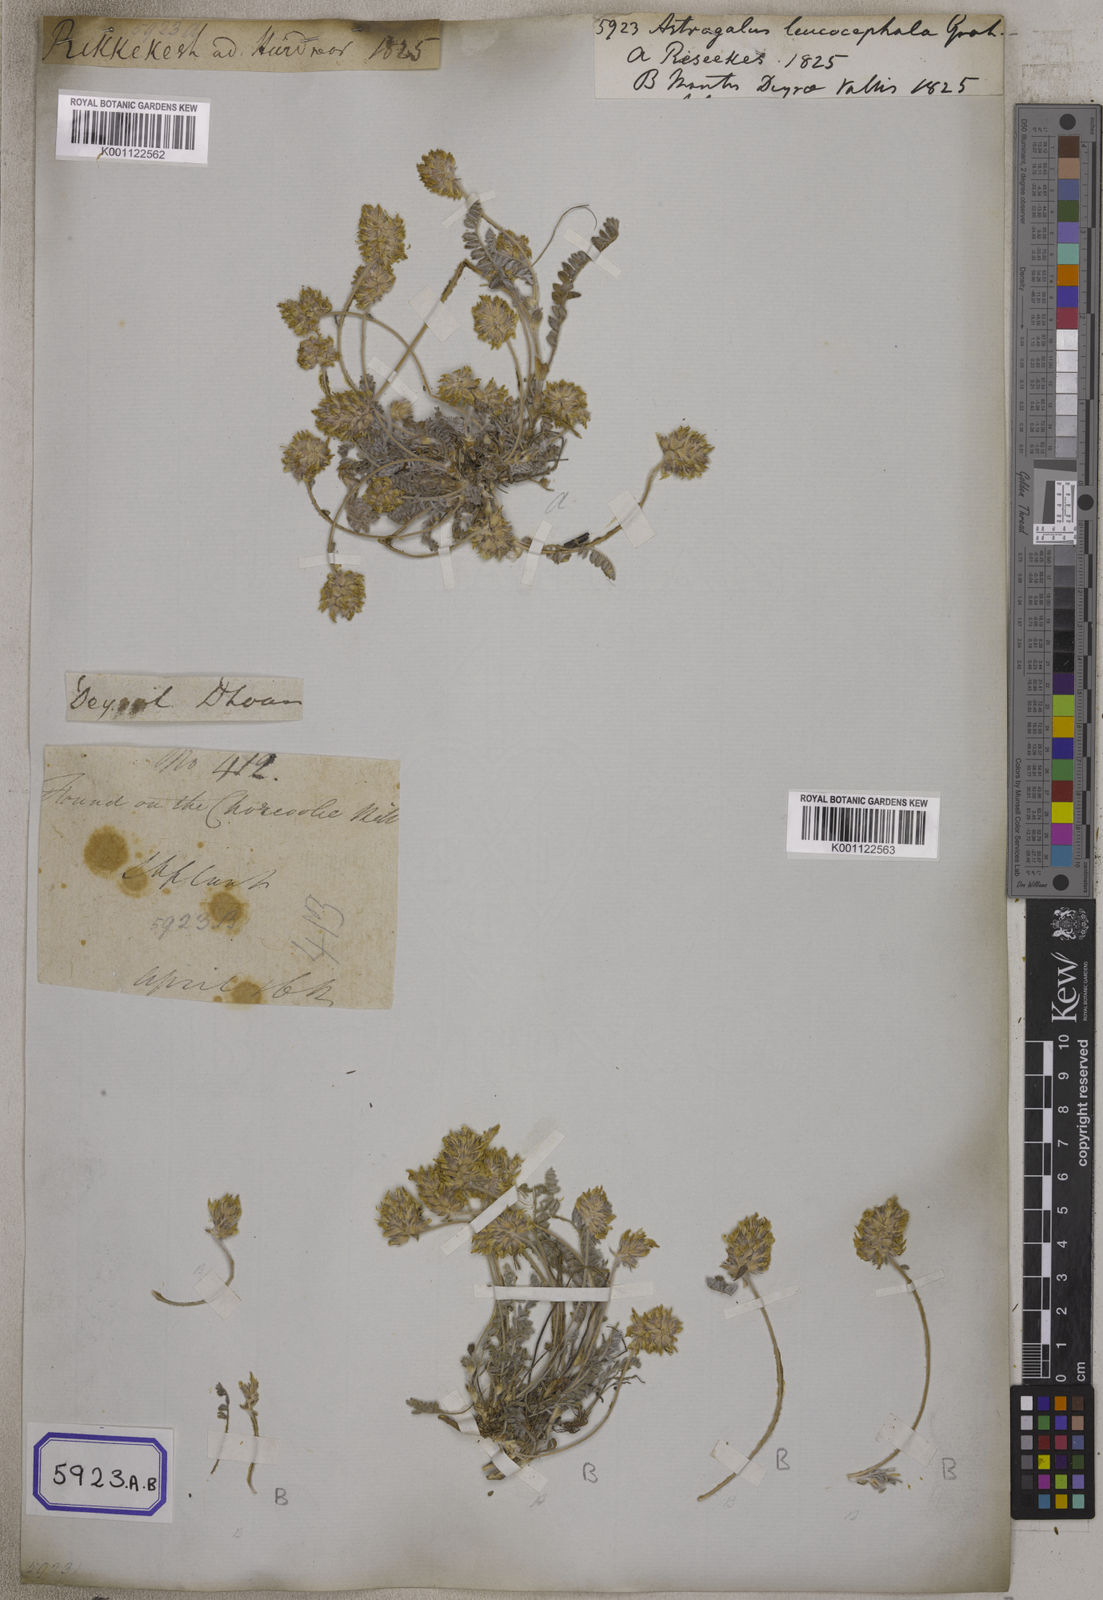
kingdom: Plantae
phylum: Tracheophyta
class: Magnoliopsida
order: Fabales
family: Fabaceae
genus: Astragalus
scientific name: Astragalus
